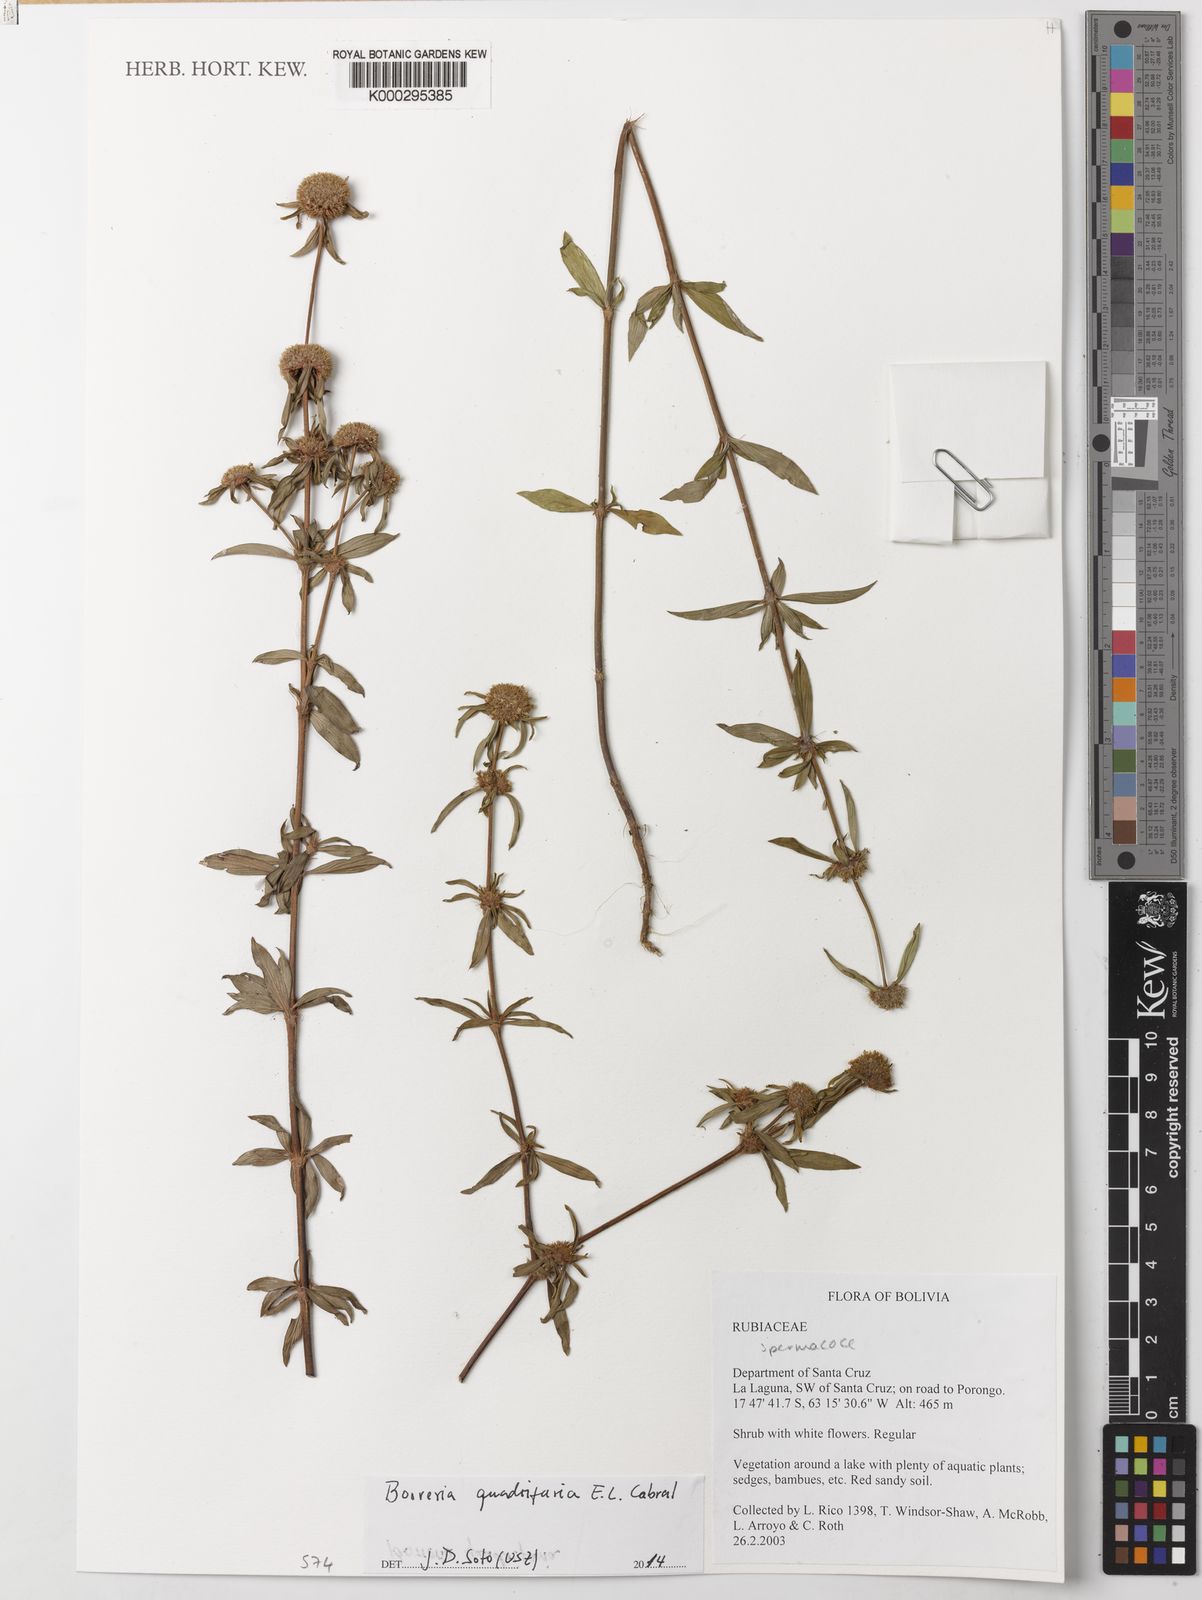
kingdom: Plantae
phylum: Tracheophyta
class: Magnoliopsida
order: Gentianales
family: Rubiaceae
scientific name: Rubiaceae
